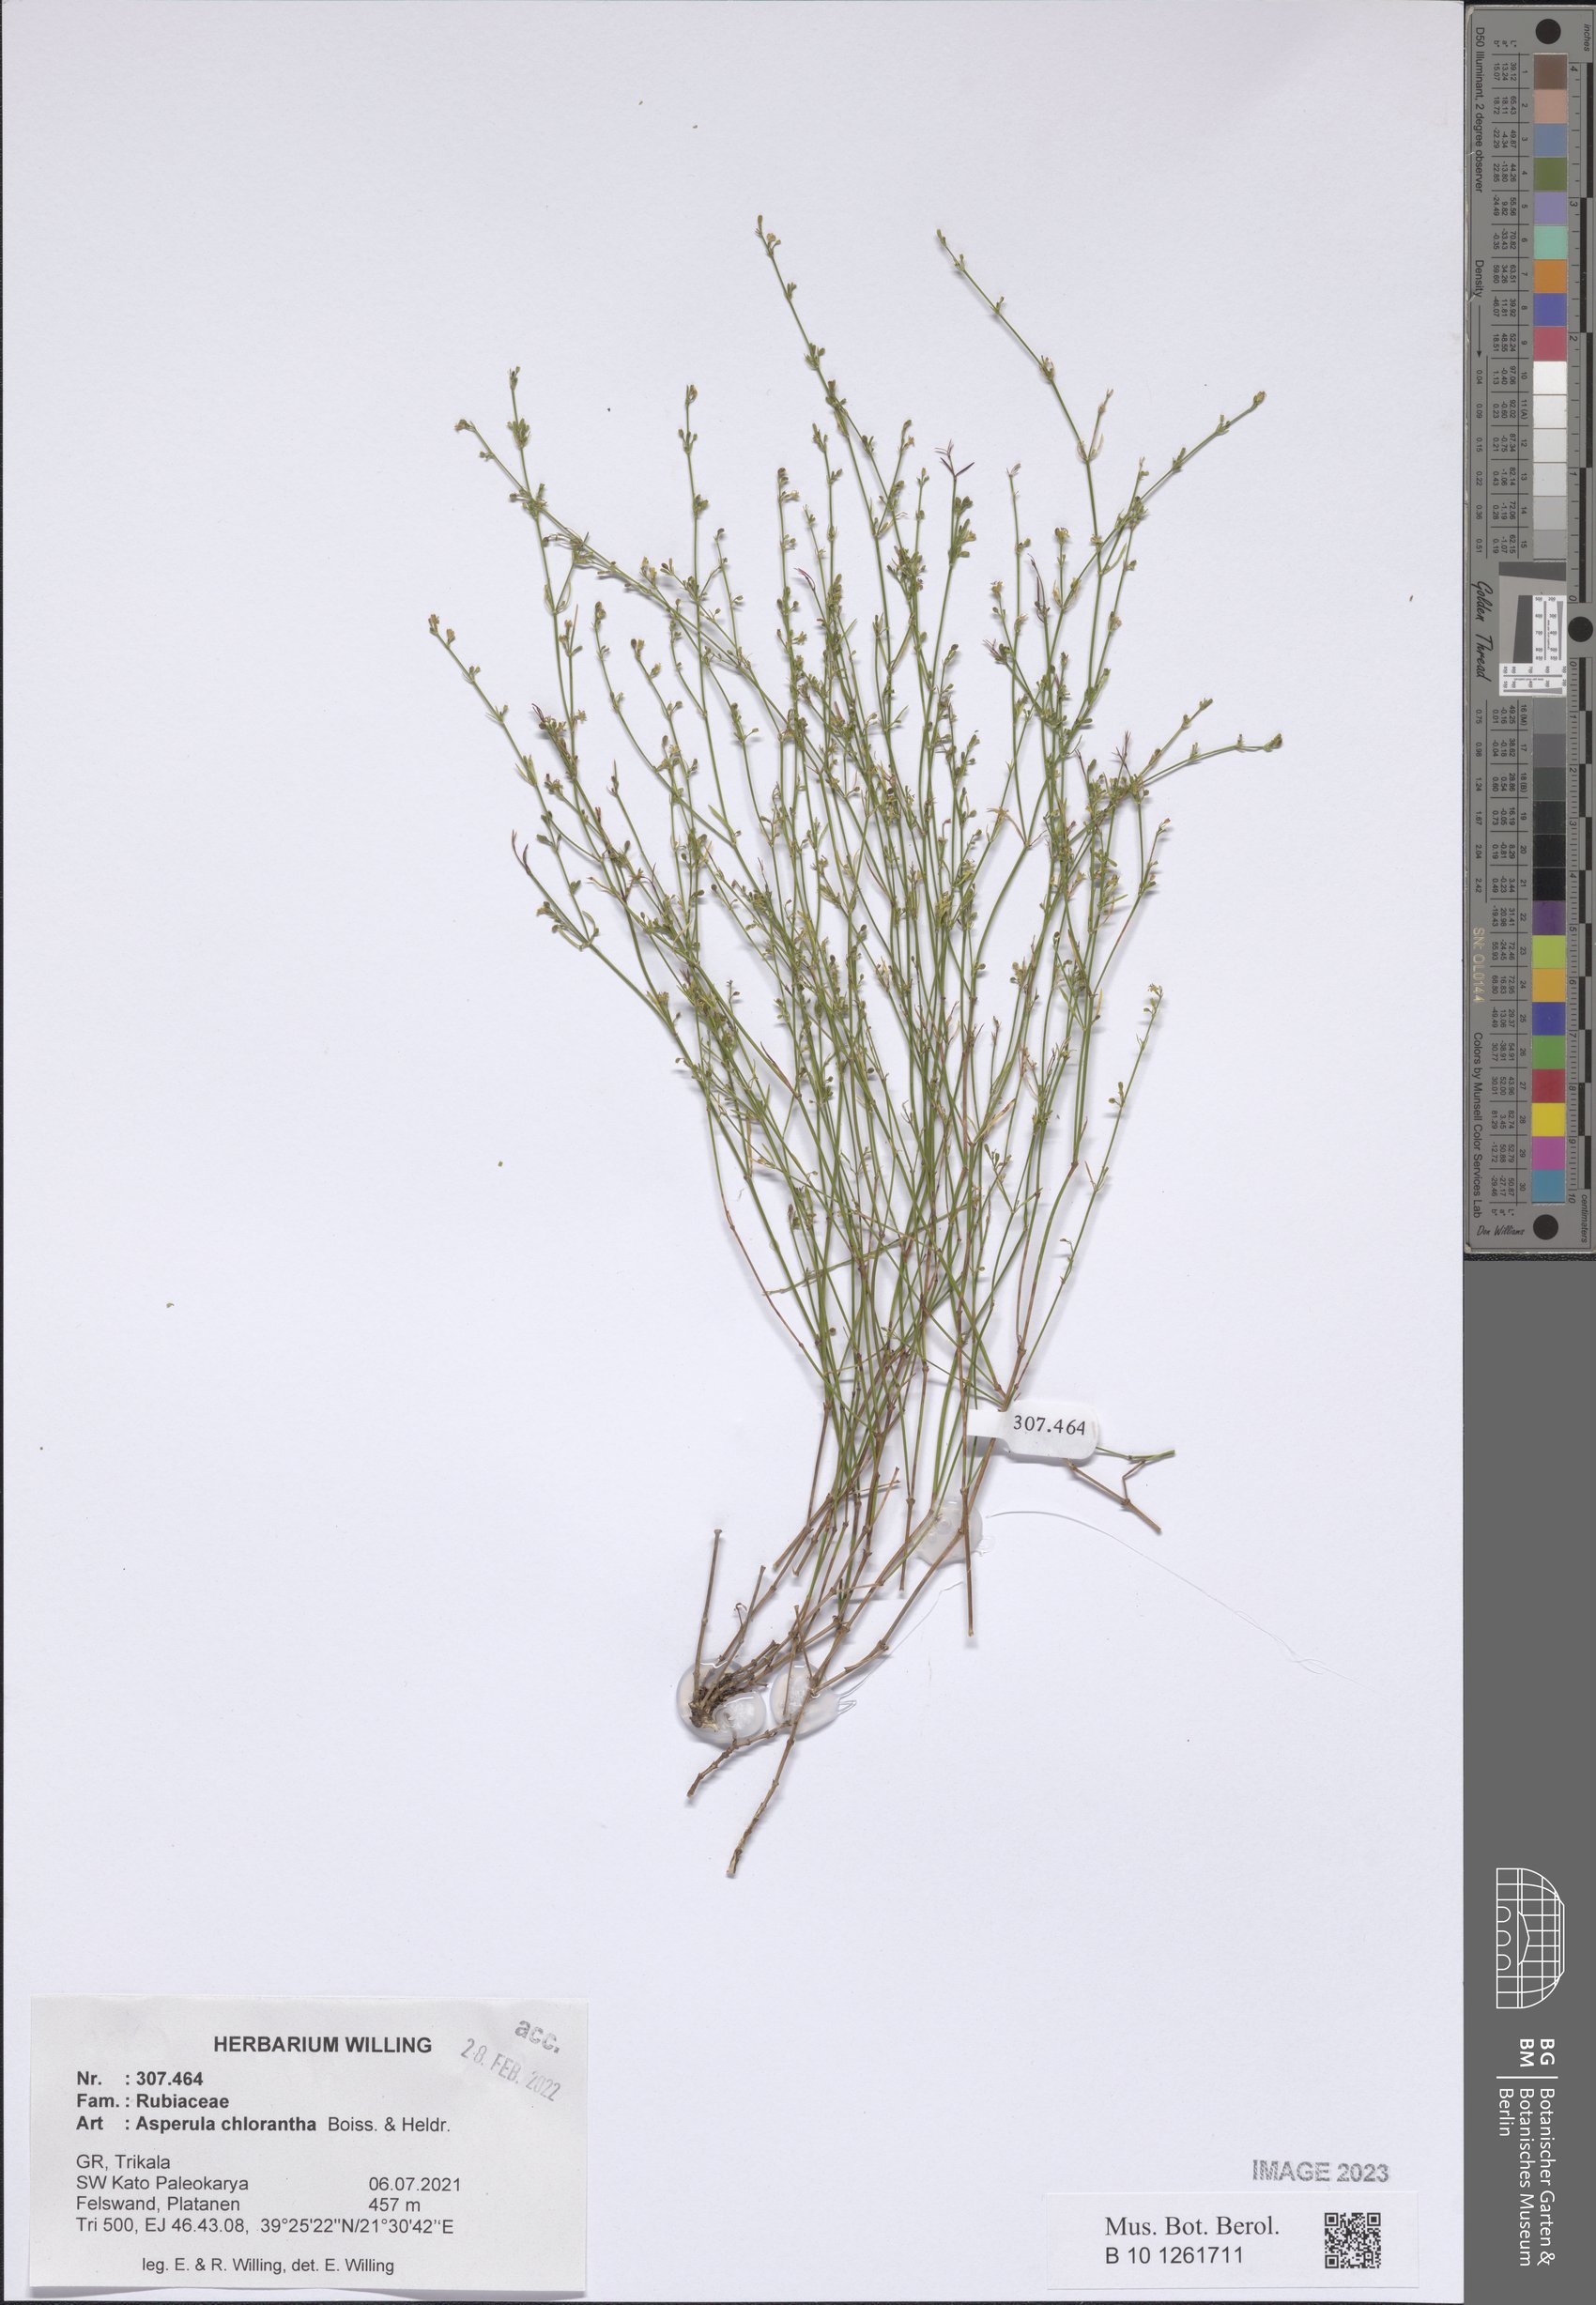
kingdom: Plantae
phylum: Tracheophyta
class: Magnoliopsida
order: Gentianales
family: Rubiaceae
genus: Thliphthisa
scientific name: Thliphthisa chlorantha
